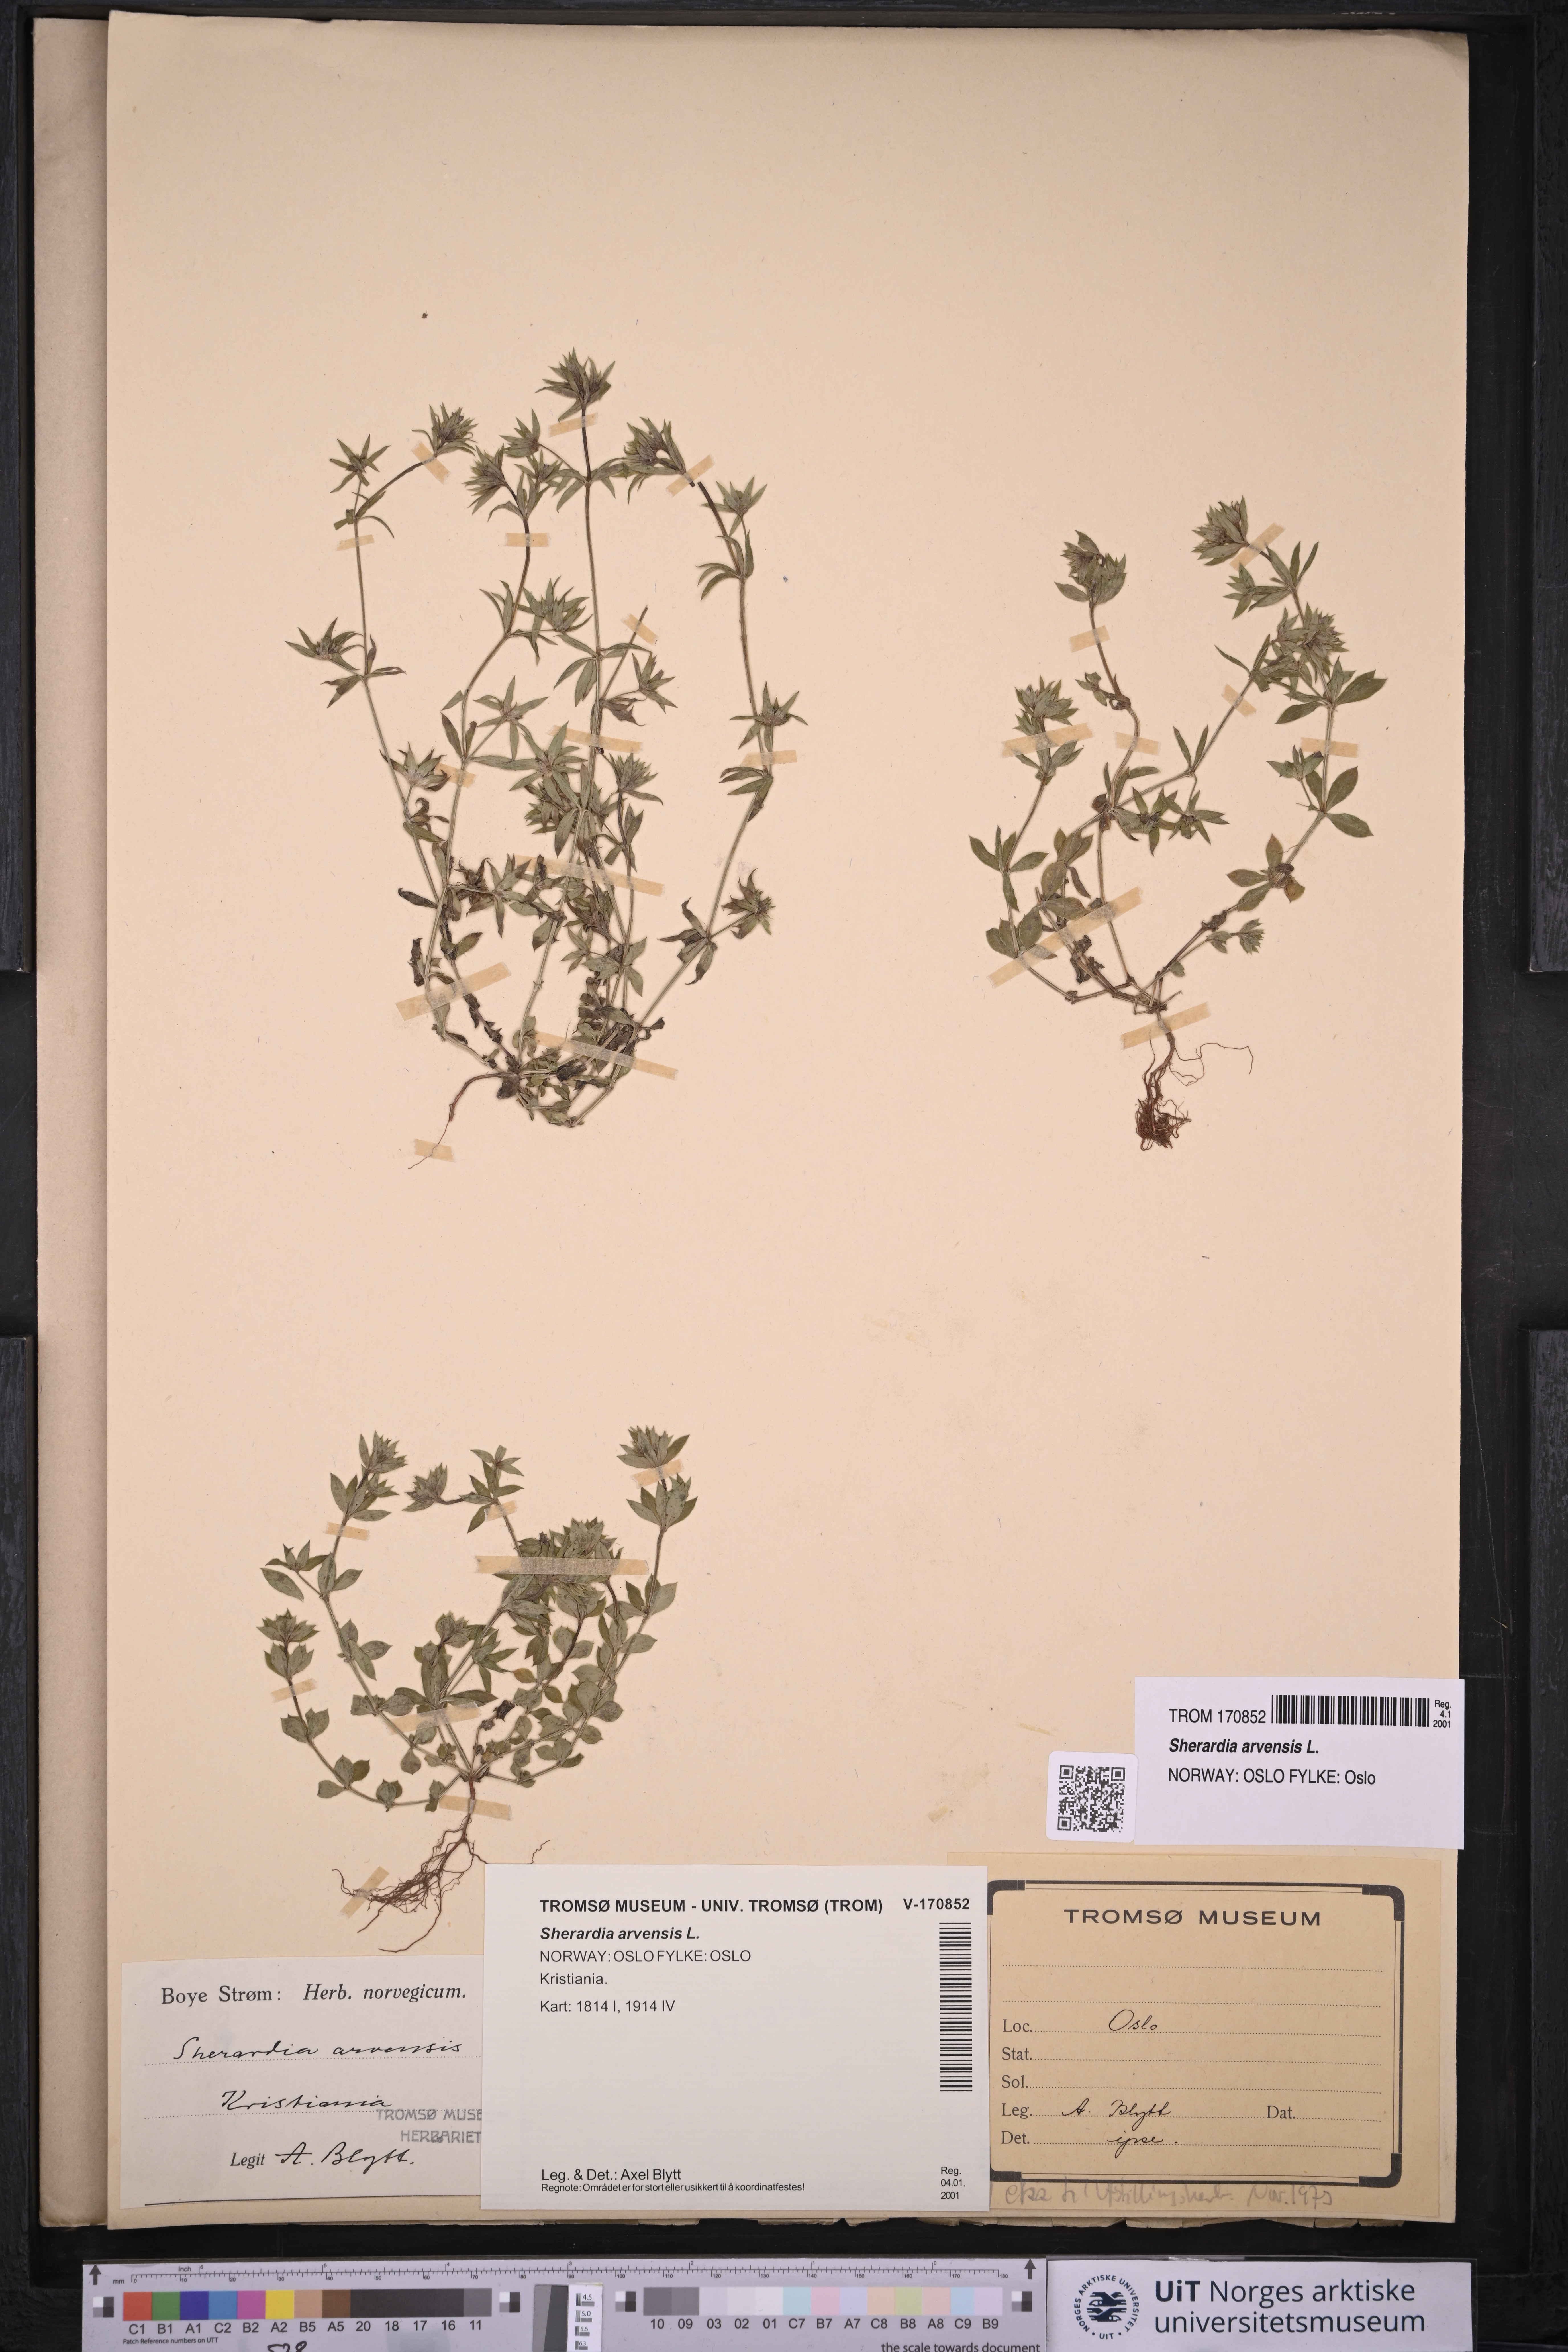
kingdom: Plantae
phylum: Tracheophyta
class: Magnoliopsida
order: Gentianales
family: Rubiaceae
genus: Sherardia
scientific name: Sherardia arvensis
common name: Field madder
